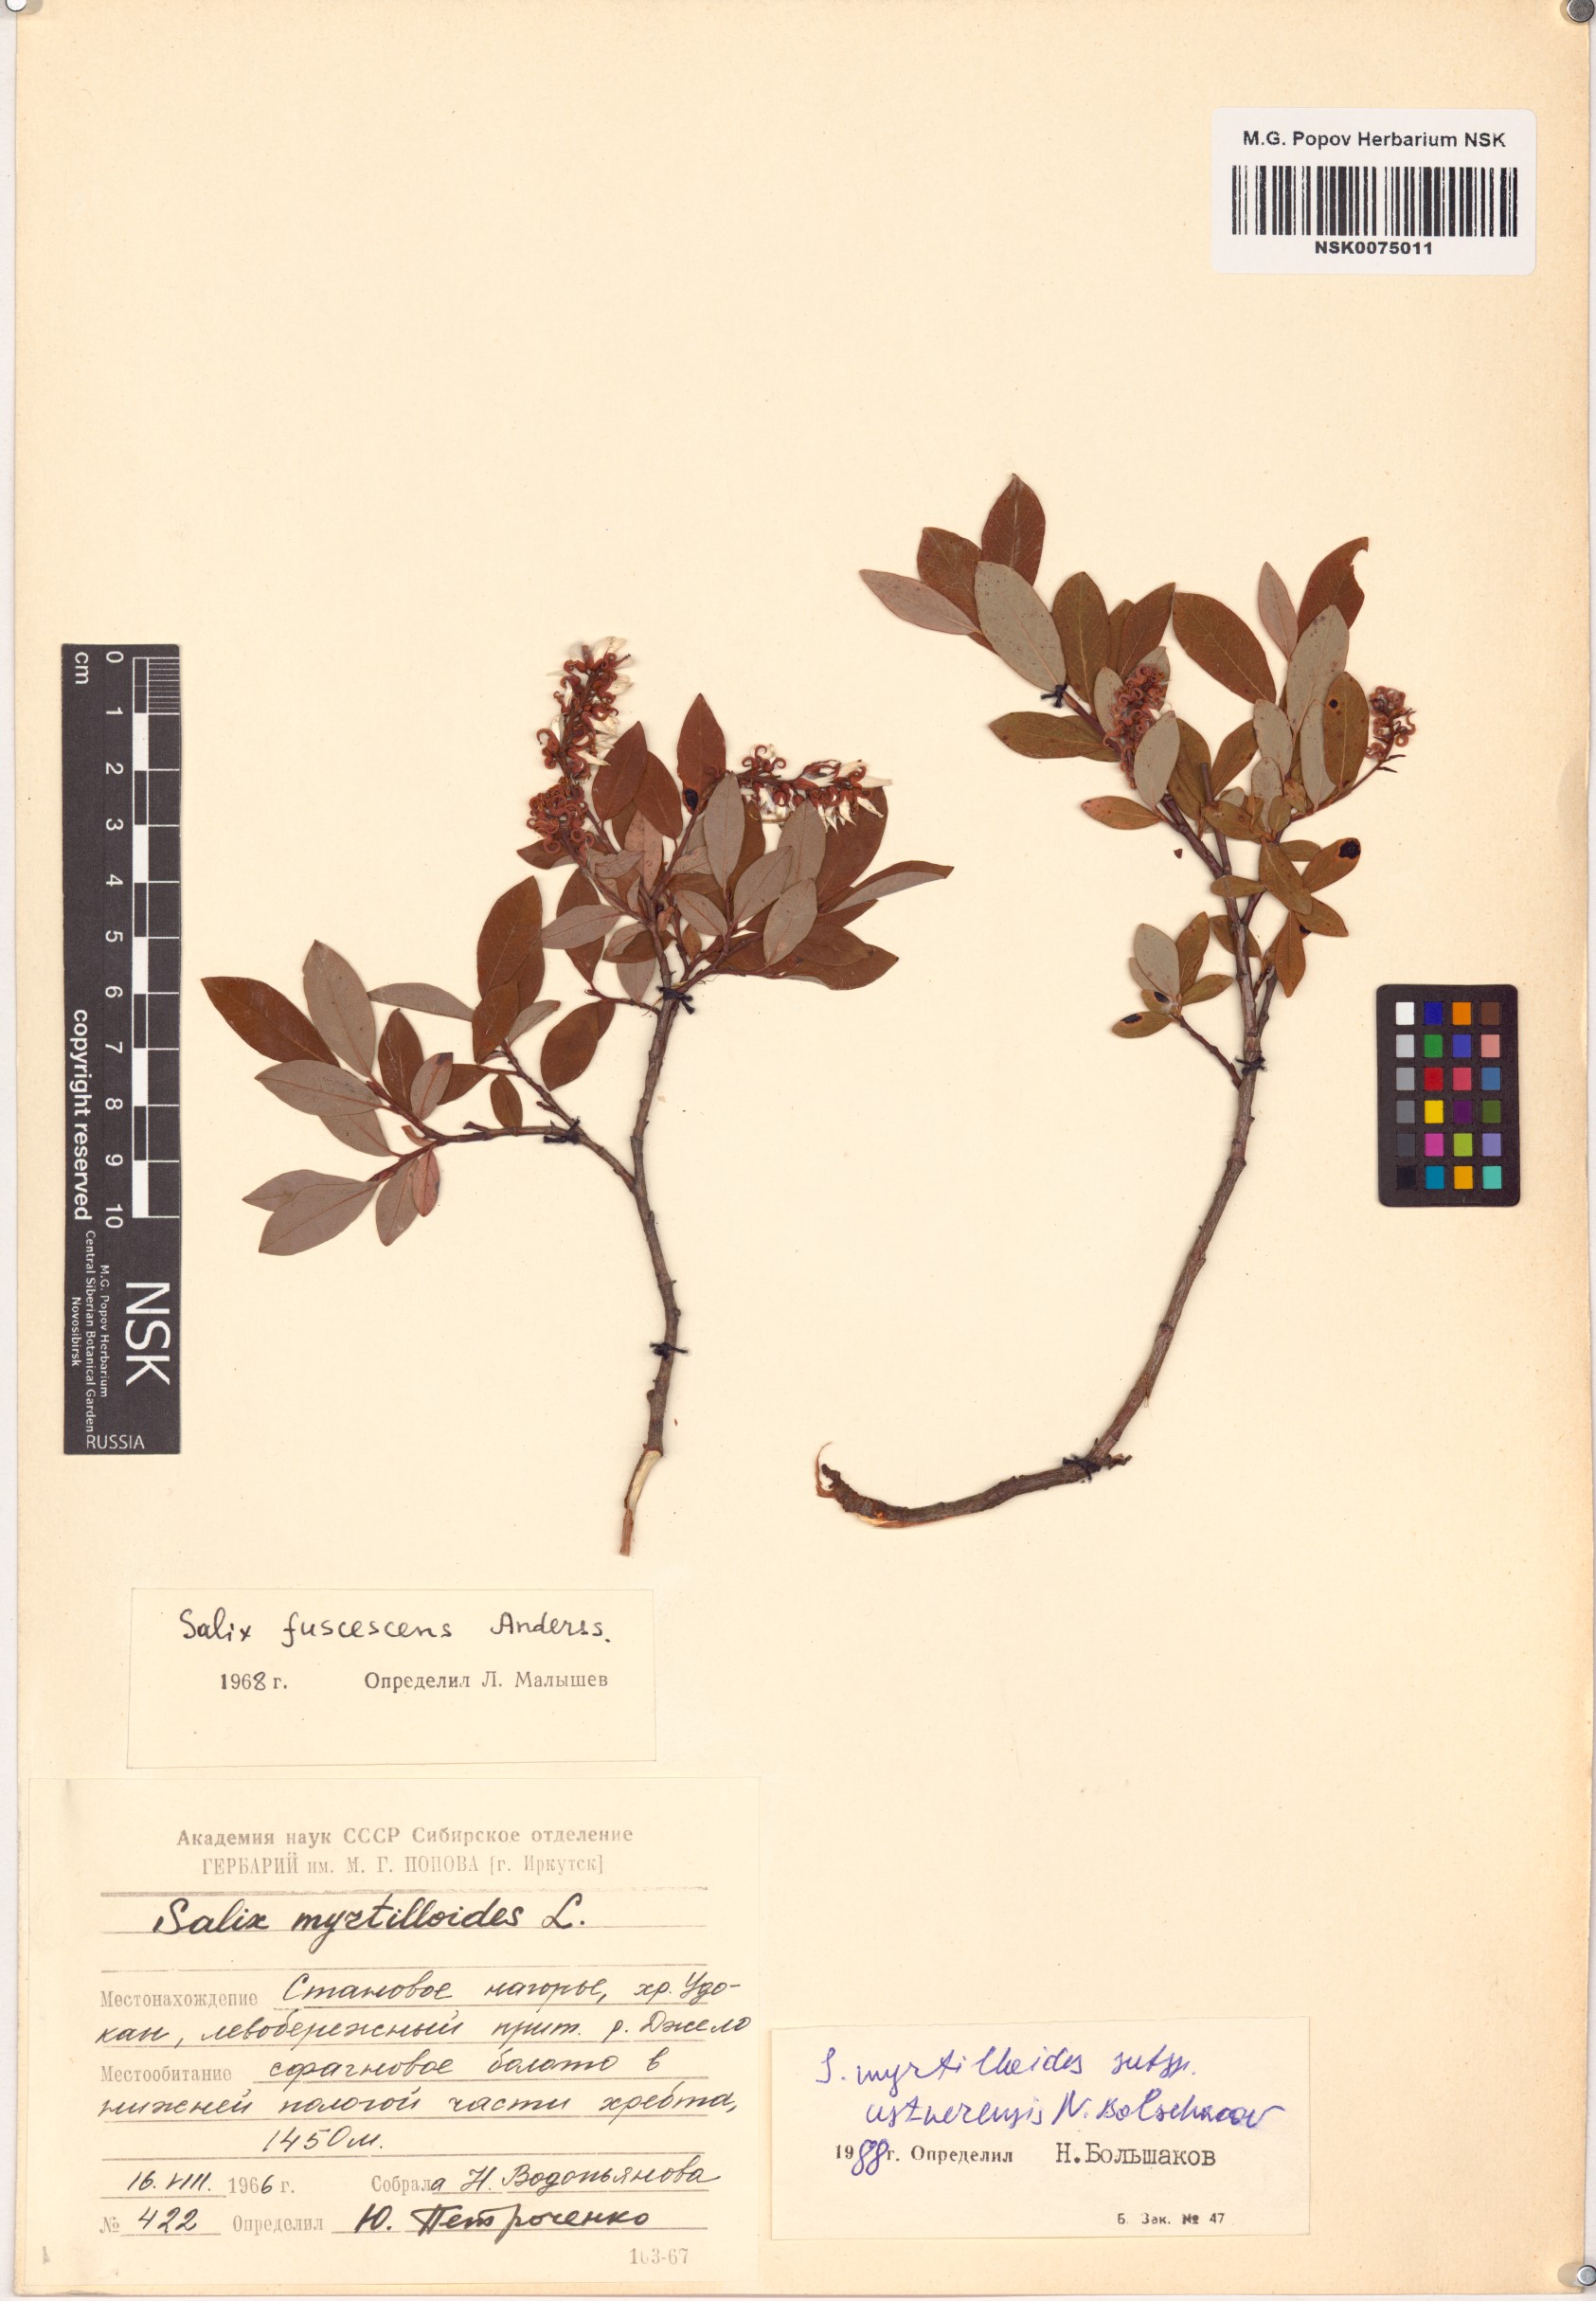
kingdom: Plantae
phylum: Tracheophyta
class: Magnoliopsida
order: Malpighiales
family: Salicaceae
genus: Salix
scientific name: Salix ustnerensis
